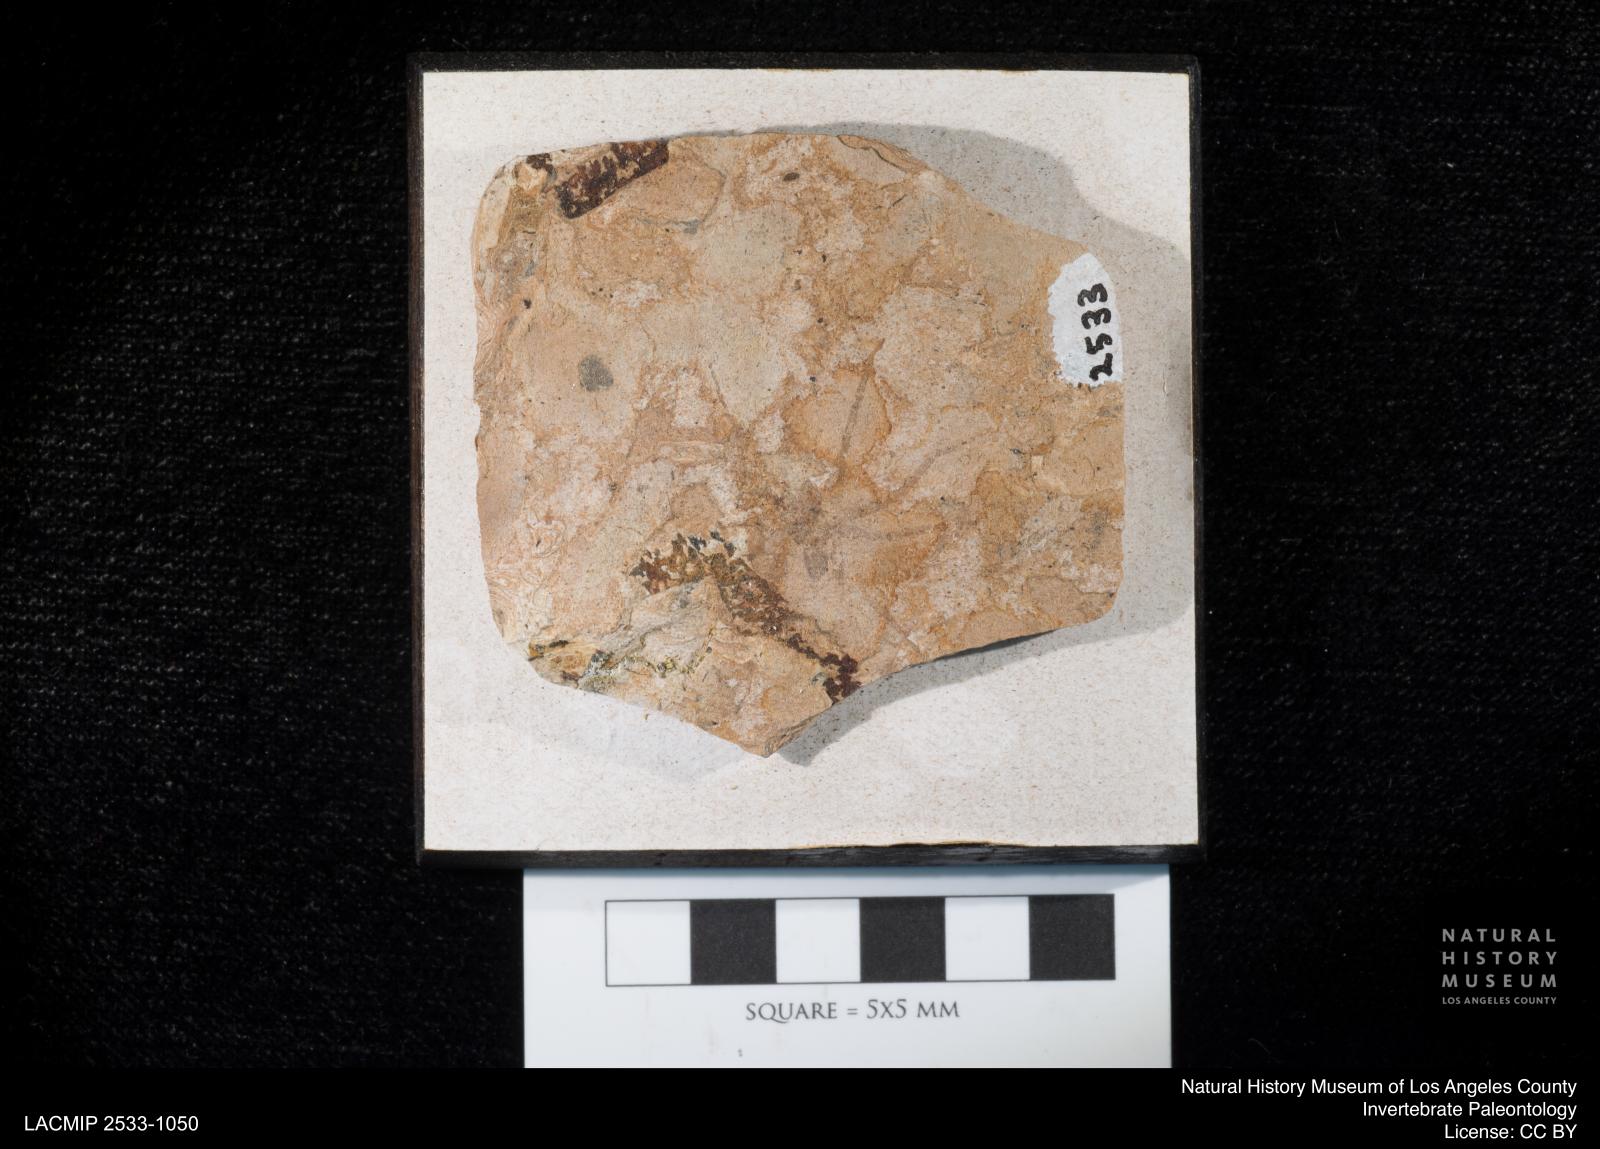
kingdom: Animalia
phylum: Arthropoda
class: Arachnida
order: Araneae
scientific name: Araneae
